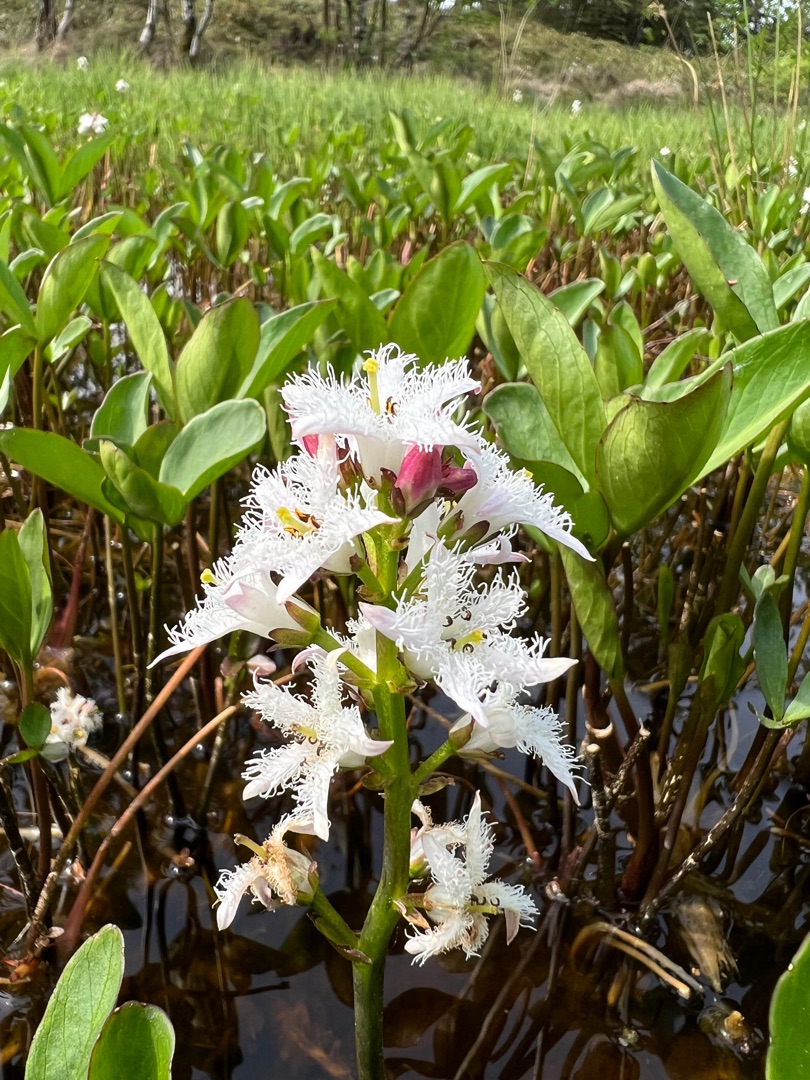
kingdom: Plantae
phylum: Tracheophyta
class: Magnoliopsida
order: Asterales
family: Menyanthaceae
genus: Menyanthes
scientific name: Menyanthes trifoliata
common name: Bukkeblad
